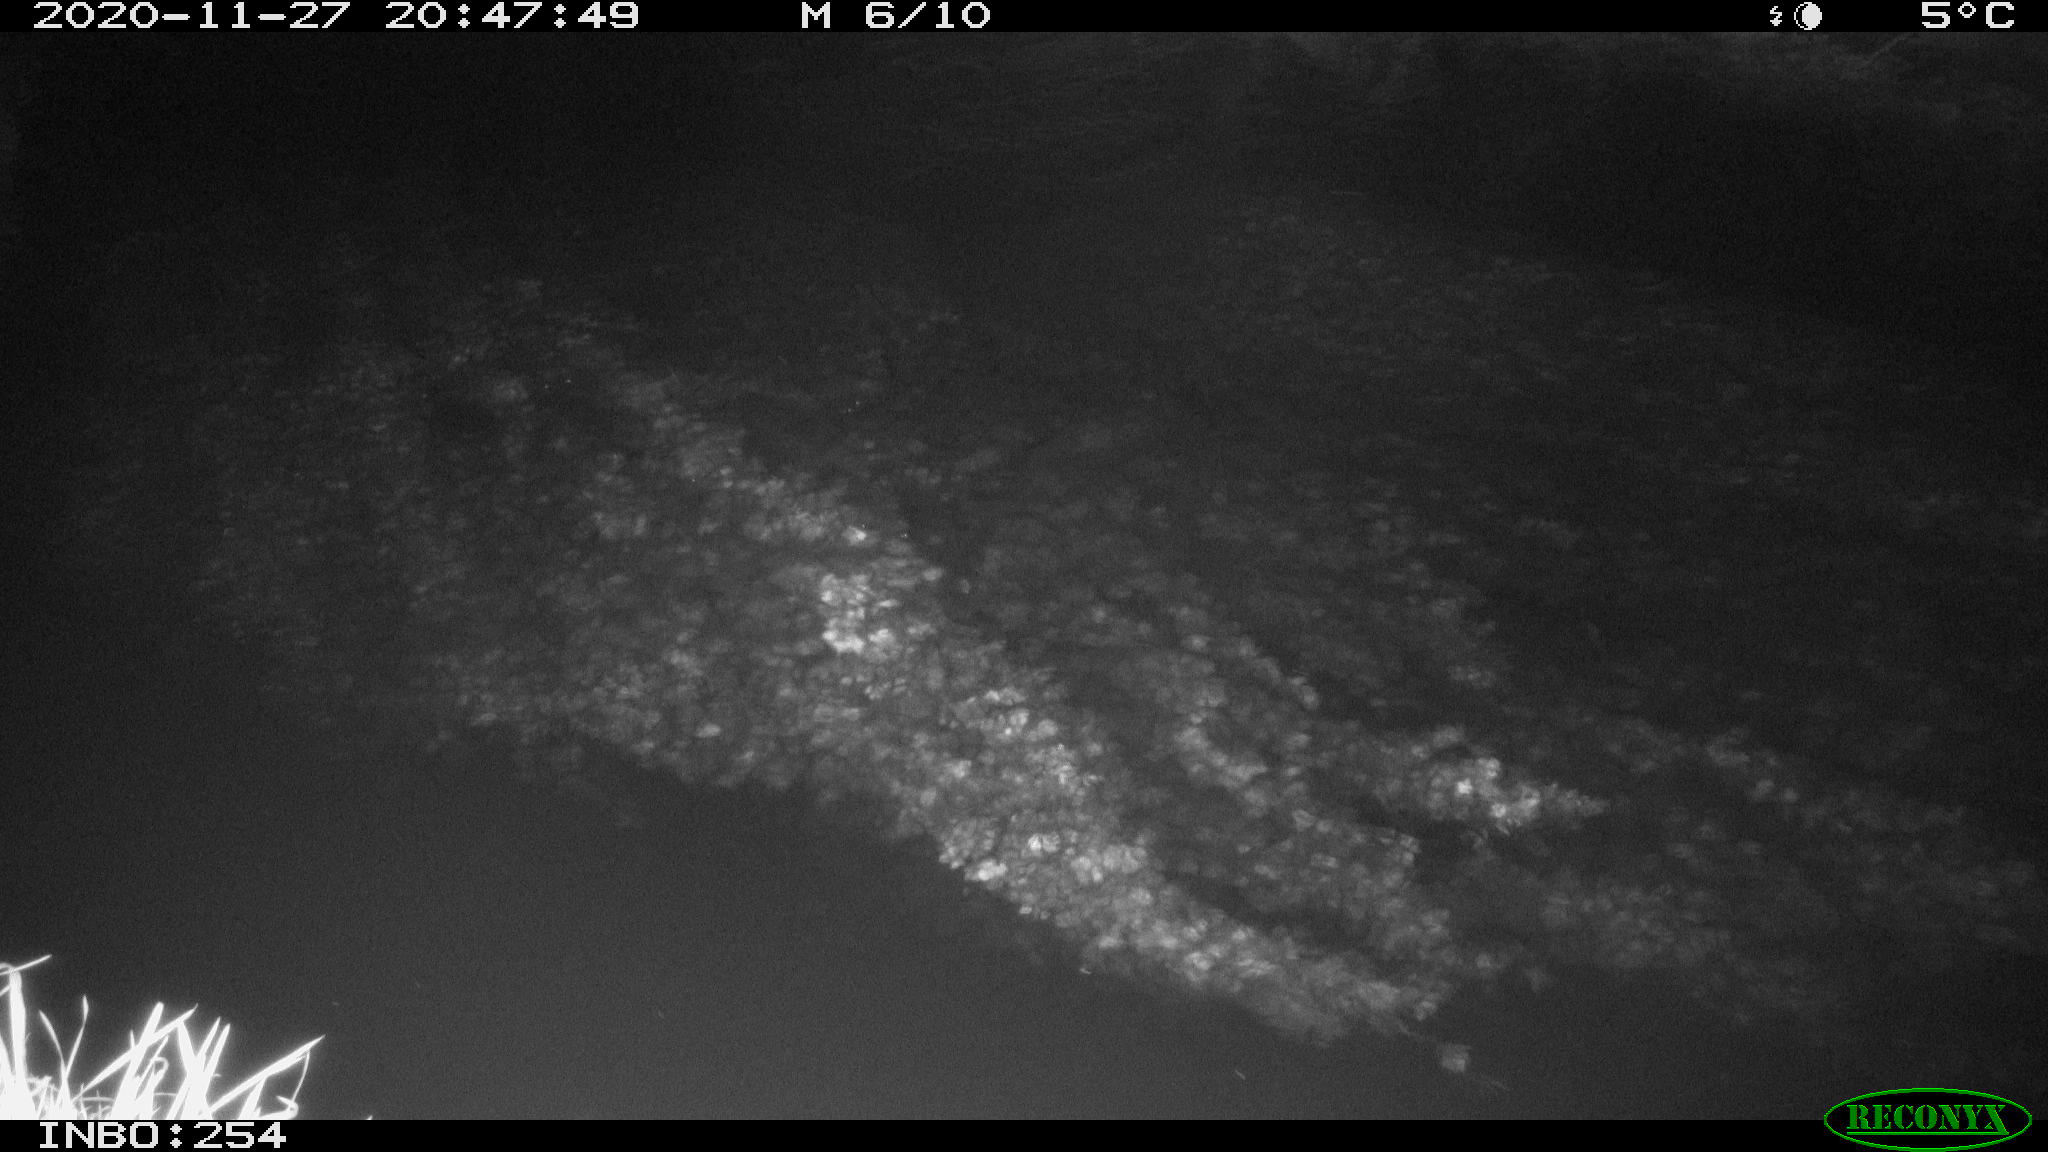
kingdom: Animalia
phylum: Chordata
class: Aves
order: Anseriformes
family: Anatidae
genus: Anas
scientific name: Anas platyrhynchos
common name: Mallard
